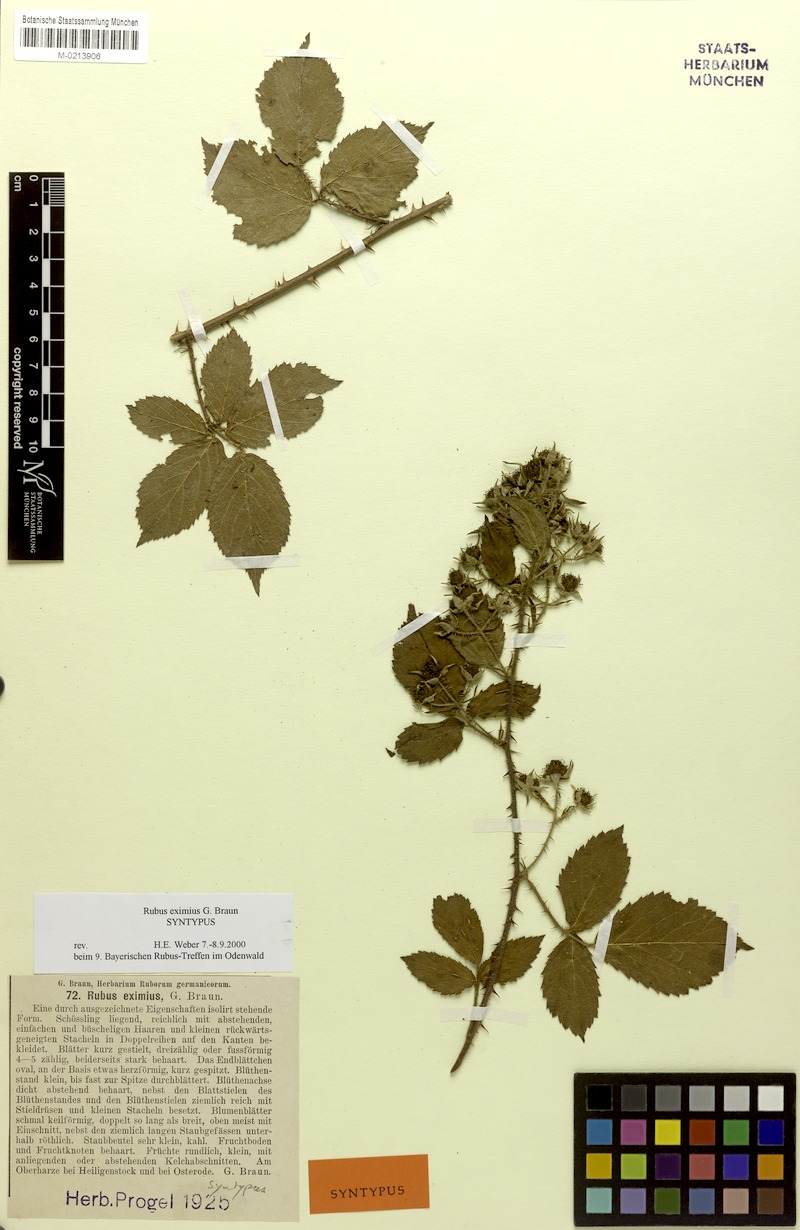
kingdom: Plantae
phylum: Tracheophyta
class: Magnoliopsida
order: Rosales
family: Rosaceae
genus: Rubus
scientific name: Rubus eximius
